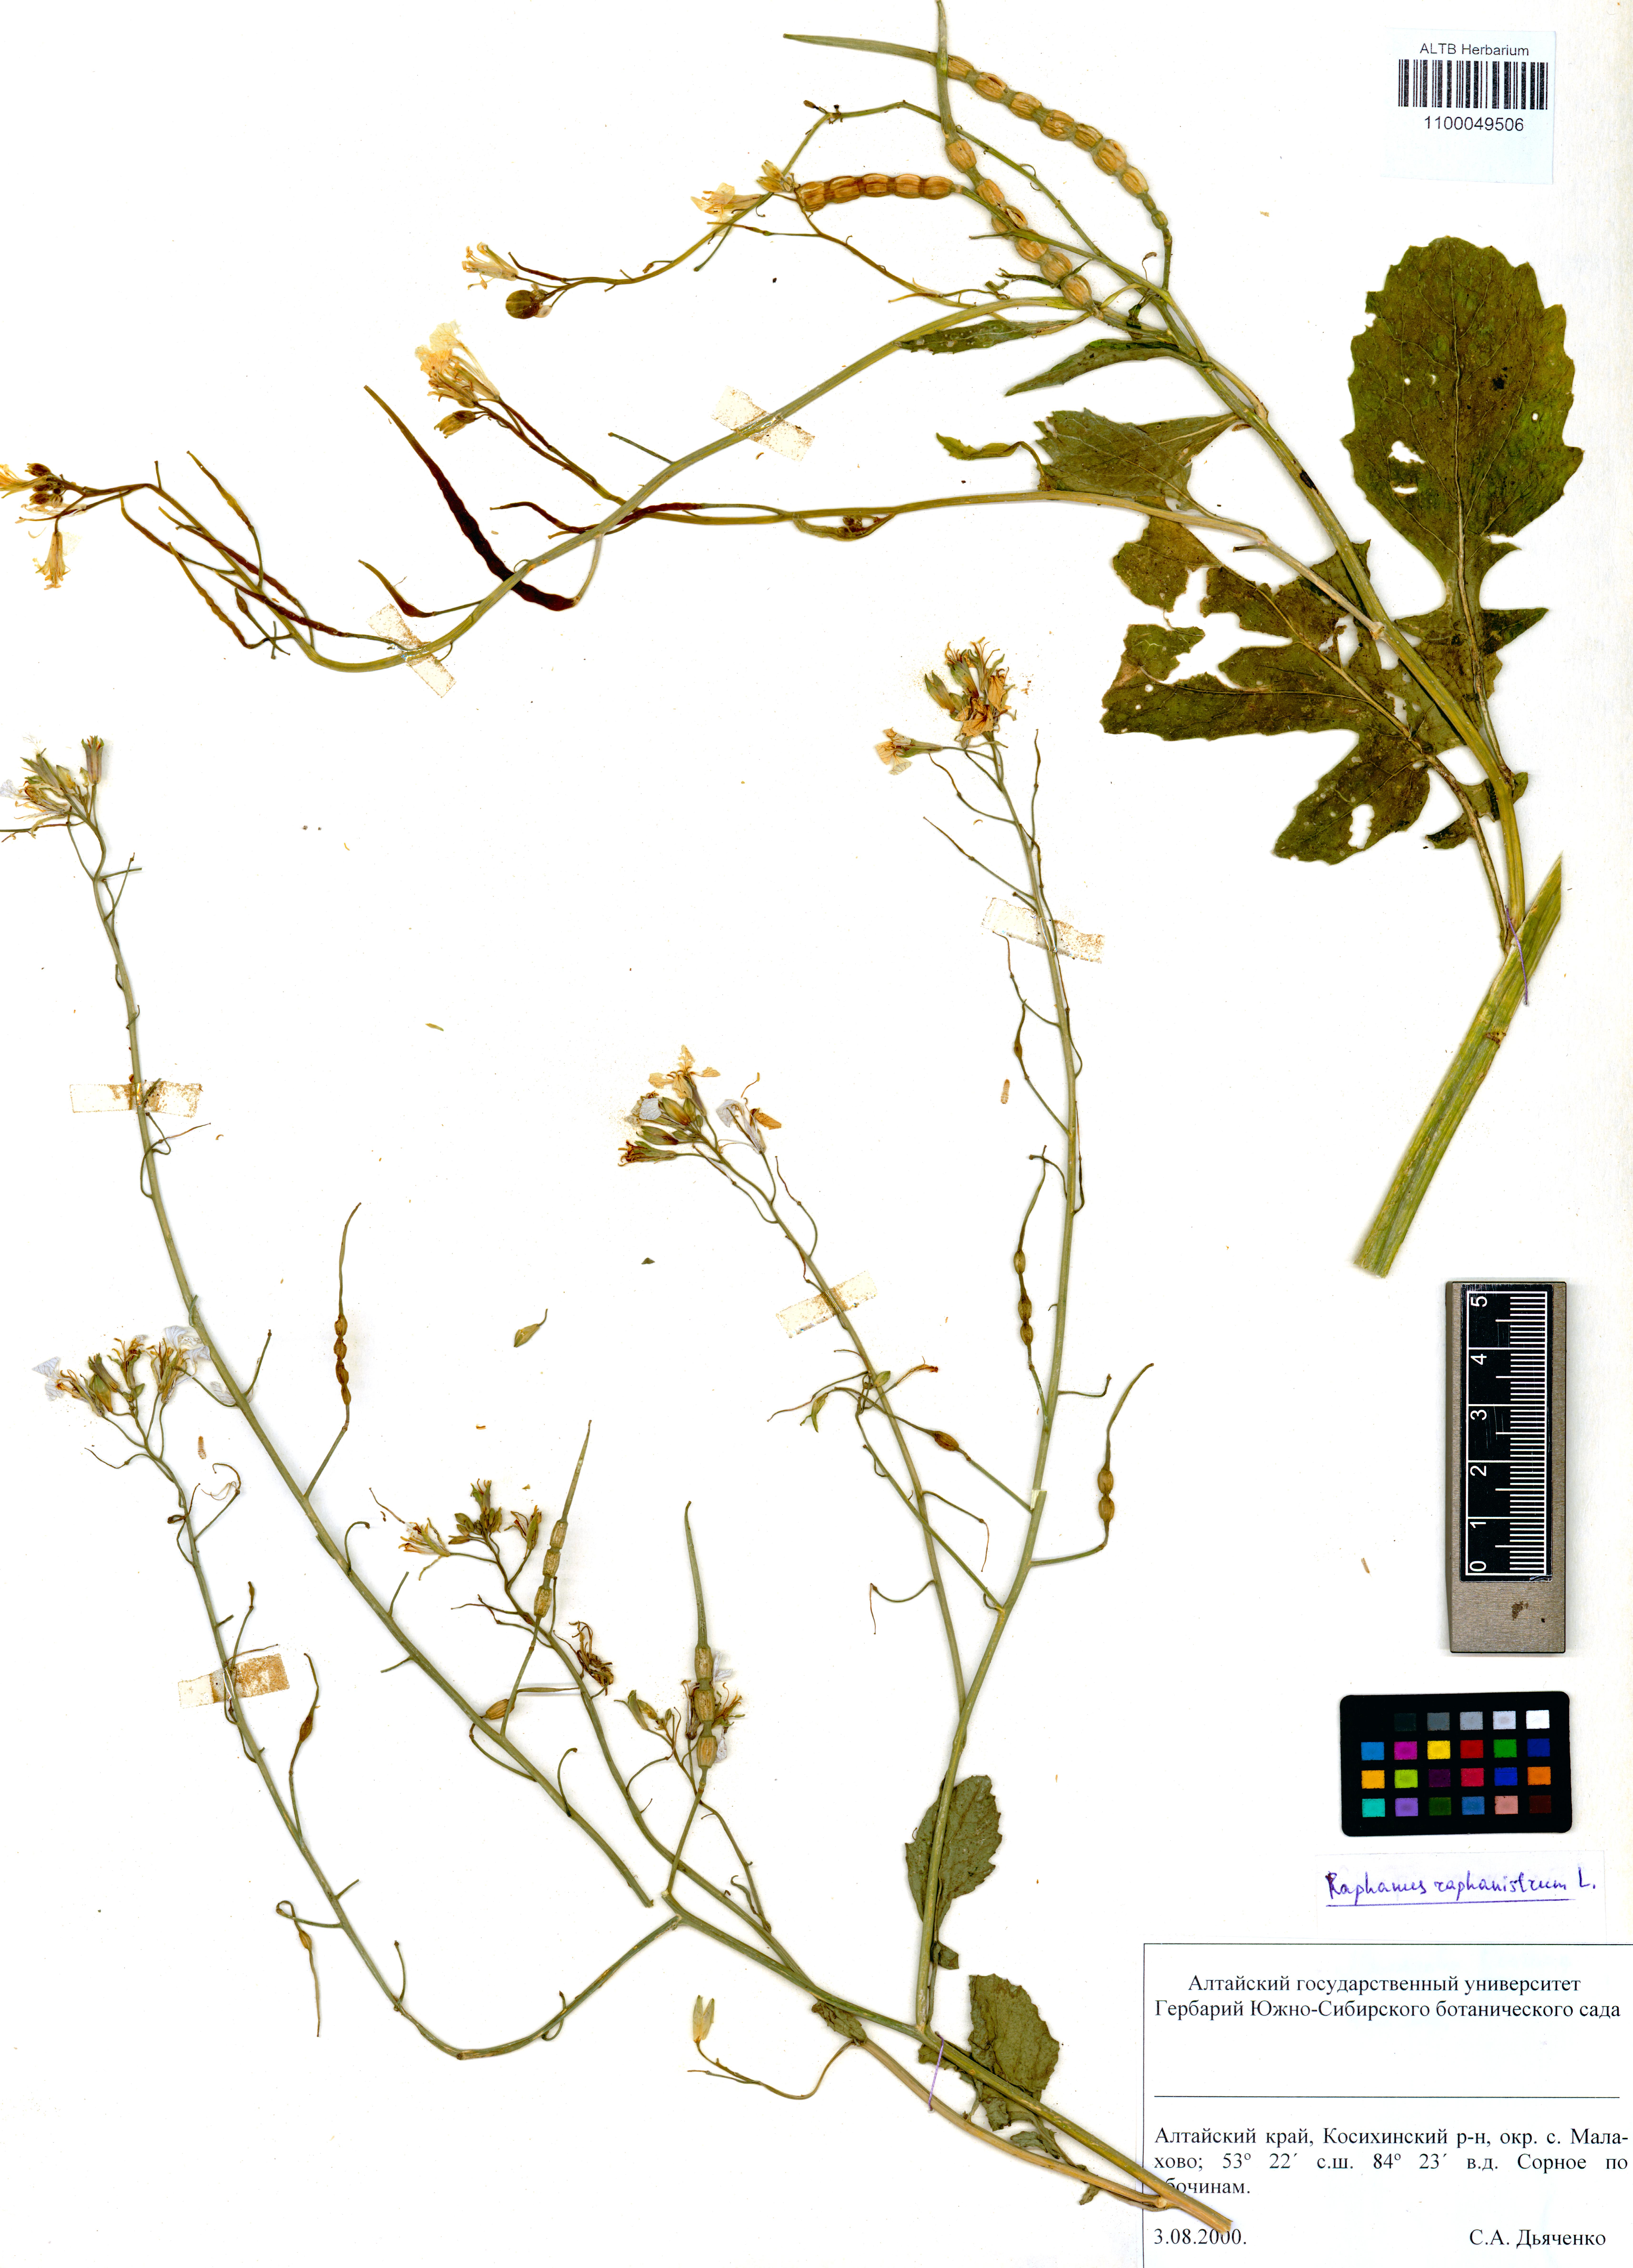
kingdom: Plantae
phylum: Tracheophyta
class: Magnoliopsida
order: Brassicales
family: Brassicaceae
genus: Raphanus
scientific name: Raphanus raphanistrum
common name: Wild radish
